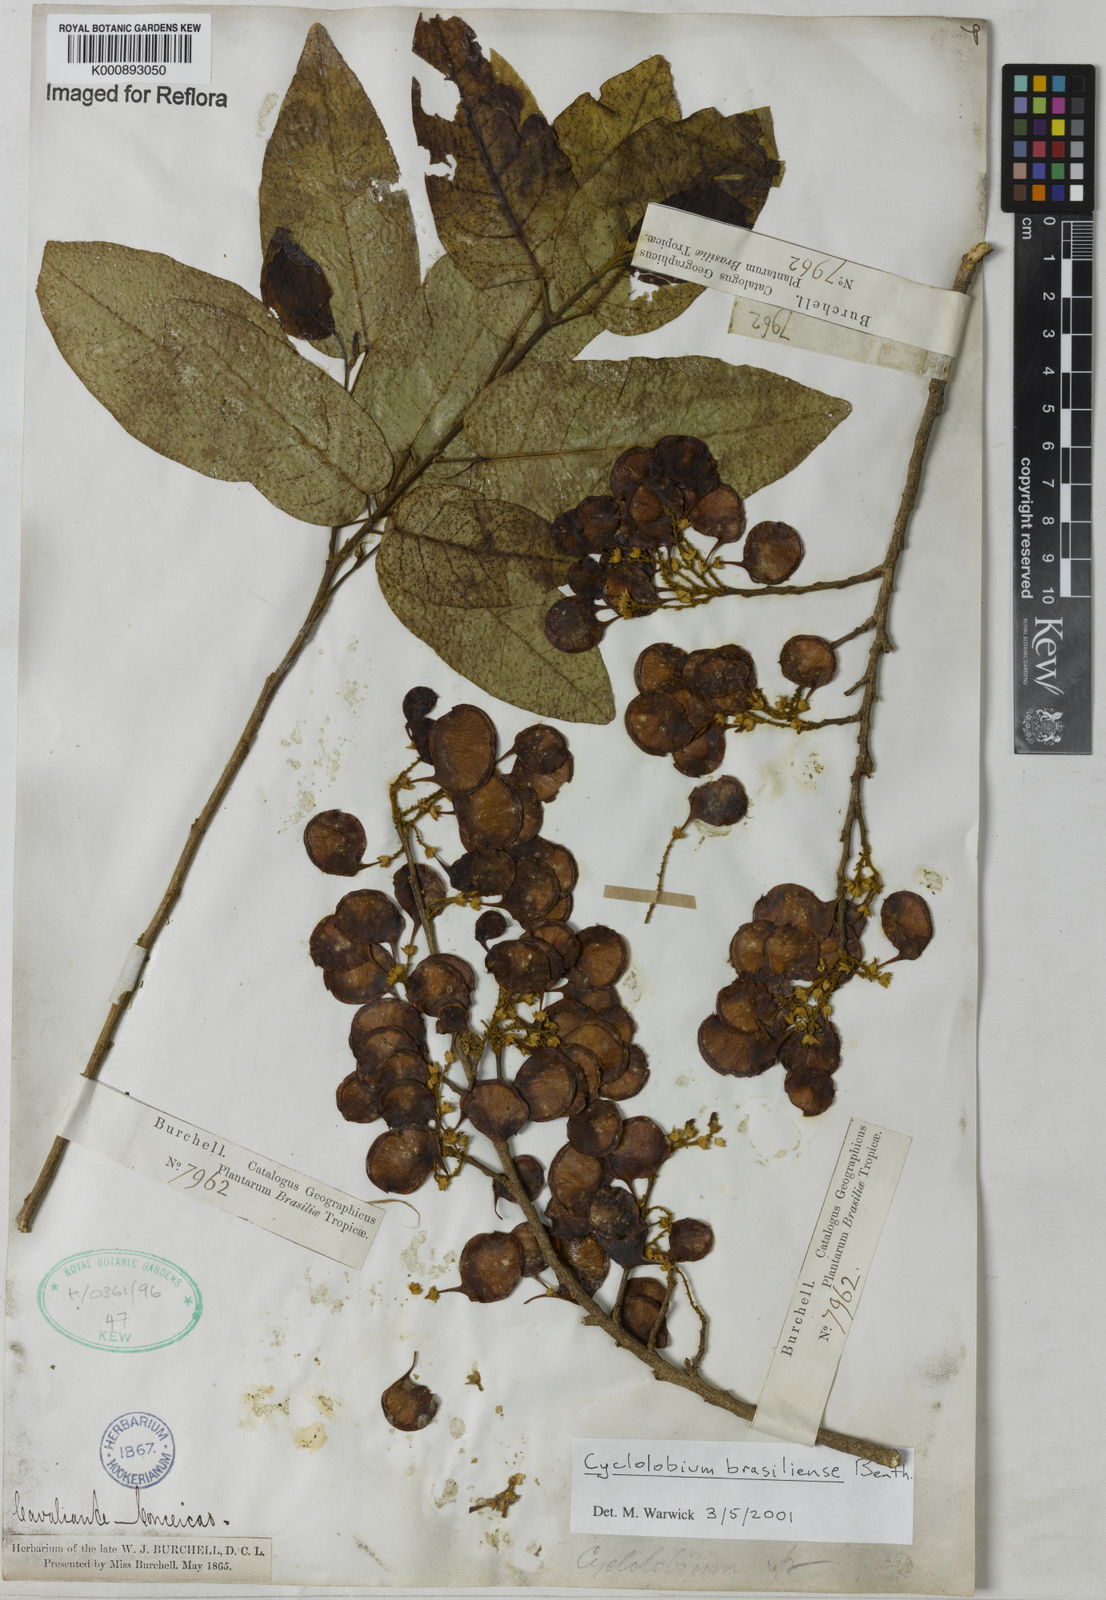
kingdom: Plantae
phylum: Tracheophyta
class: Magnoliopsida
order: Fabales
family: Fabaceae
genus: Cyclolobium
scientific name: Cyclolobium brasiliense
